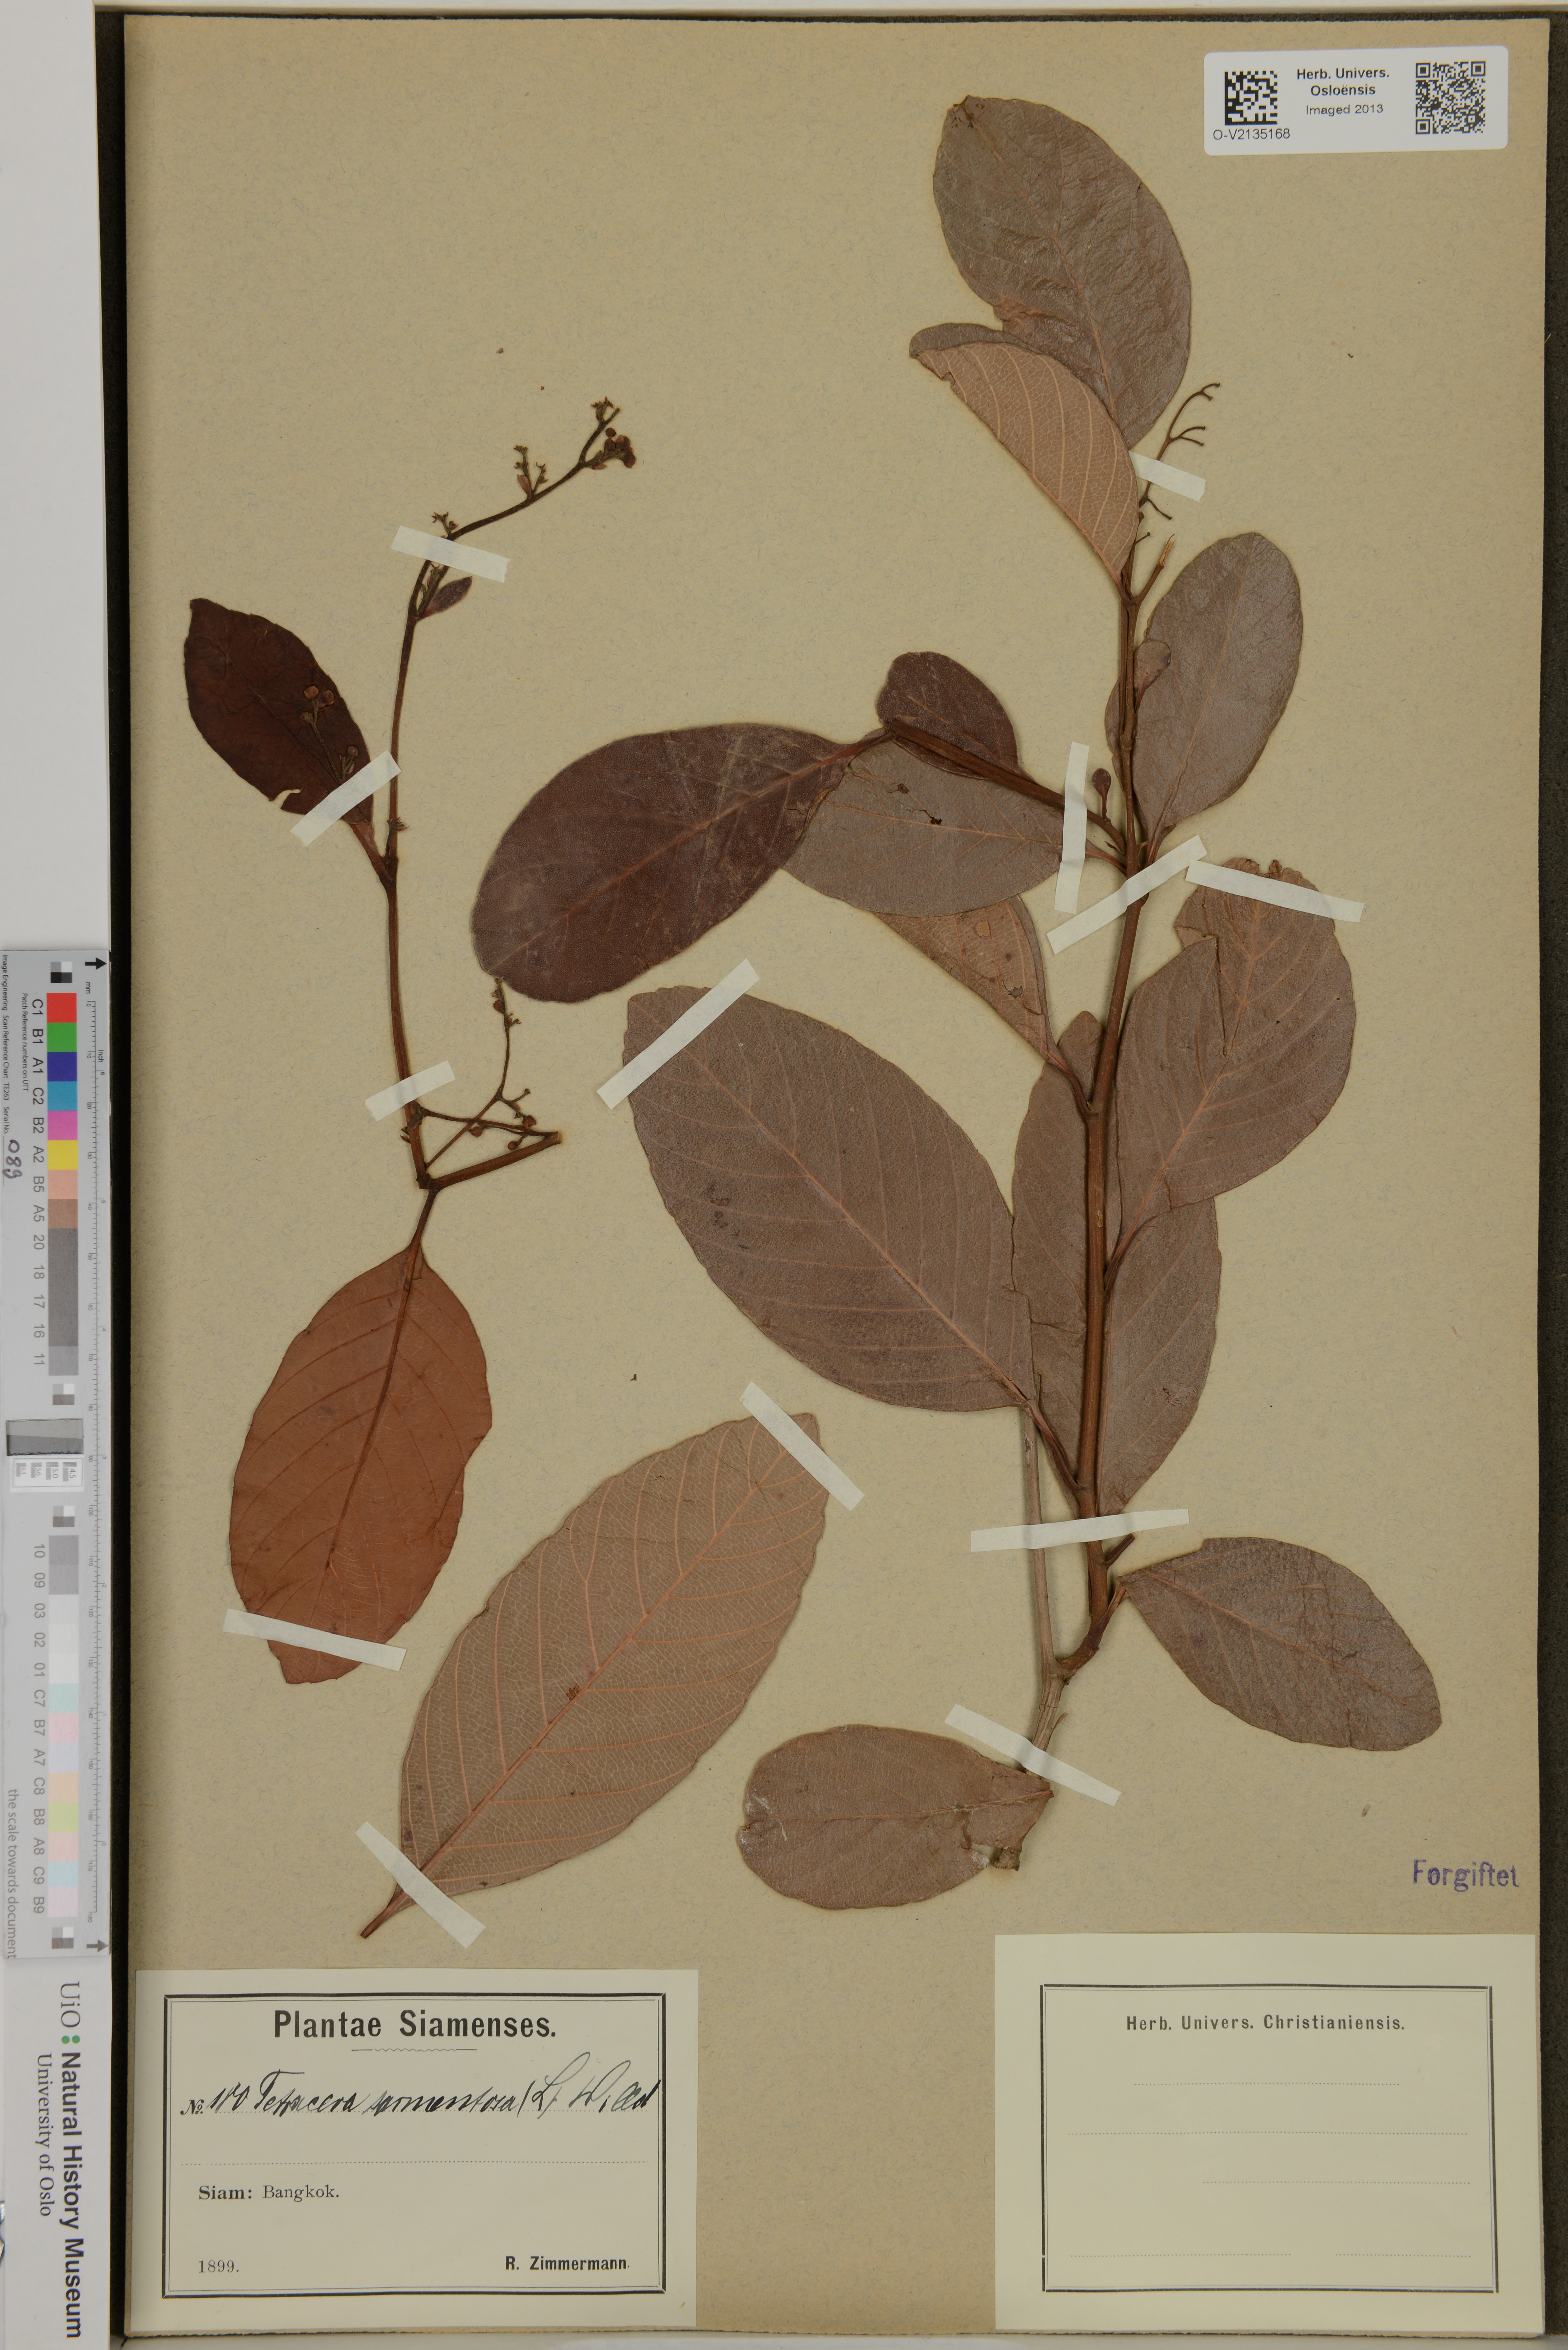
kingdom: Plantae
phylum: Tracheophyta
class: Magnoliopsida
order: Dilleniales
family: Dilleniaceae
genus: Tetracera
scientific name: Tetracera sarmentosa
